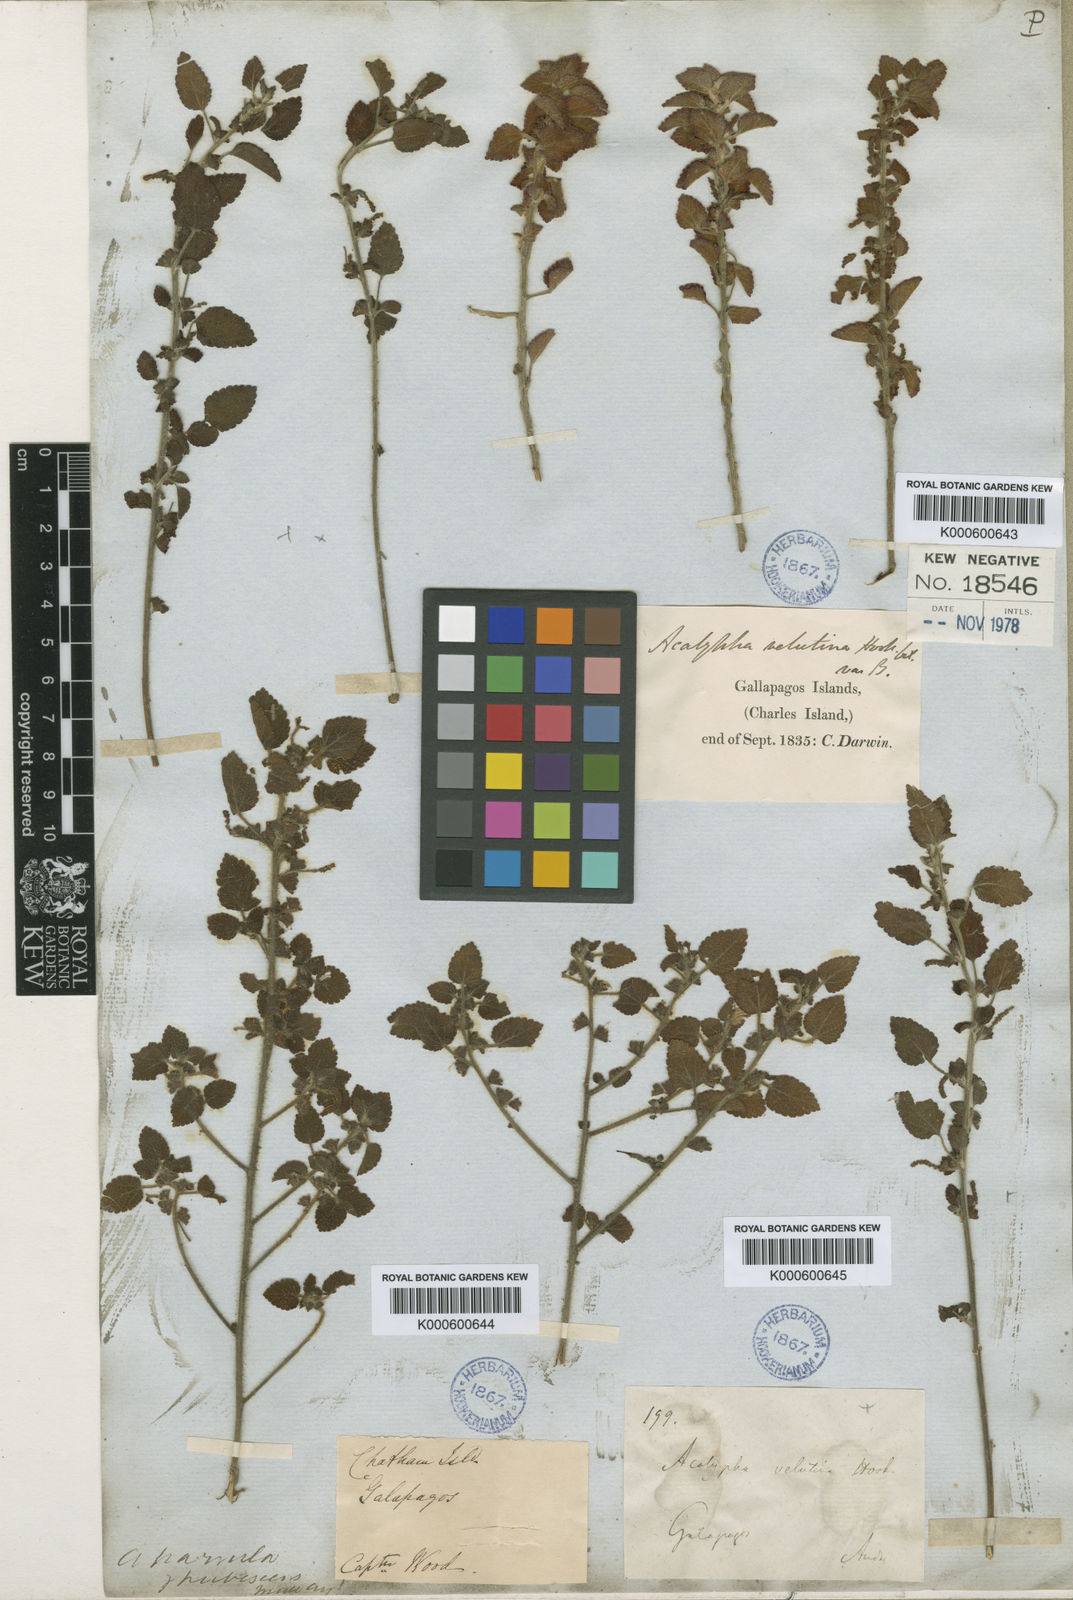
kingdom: Plantae
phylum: Tracheophyta
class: Magnoliopsida
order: Malpighiales
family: Euphorbiaceae
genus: Acalypha
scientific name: Acalypha parvula
